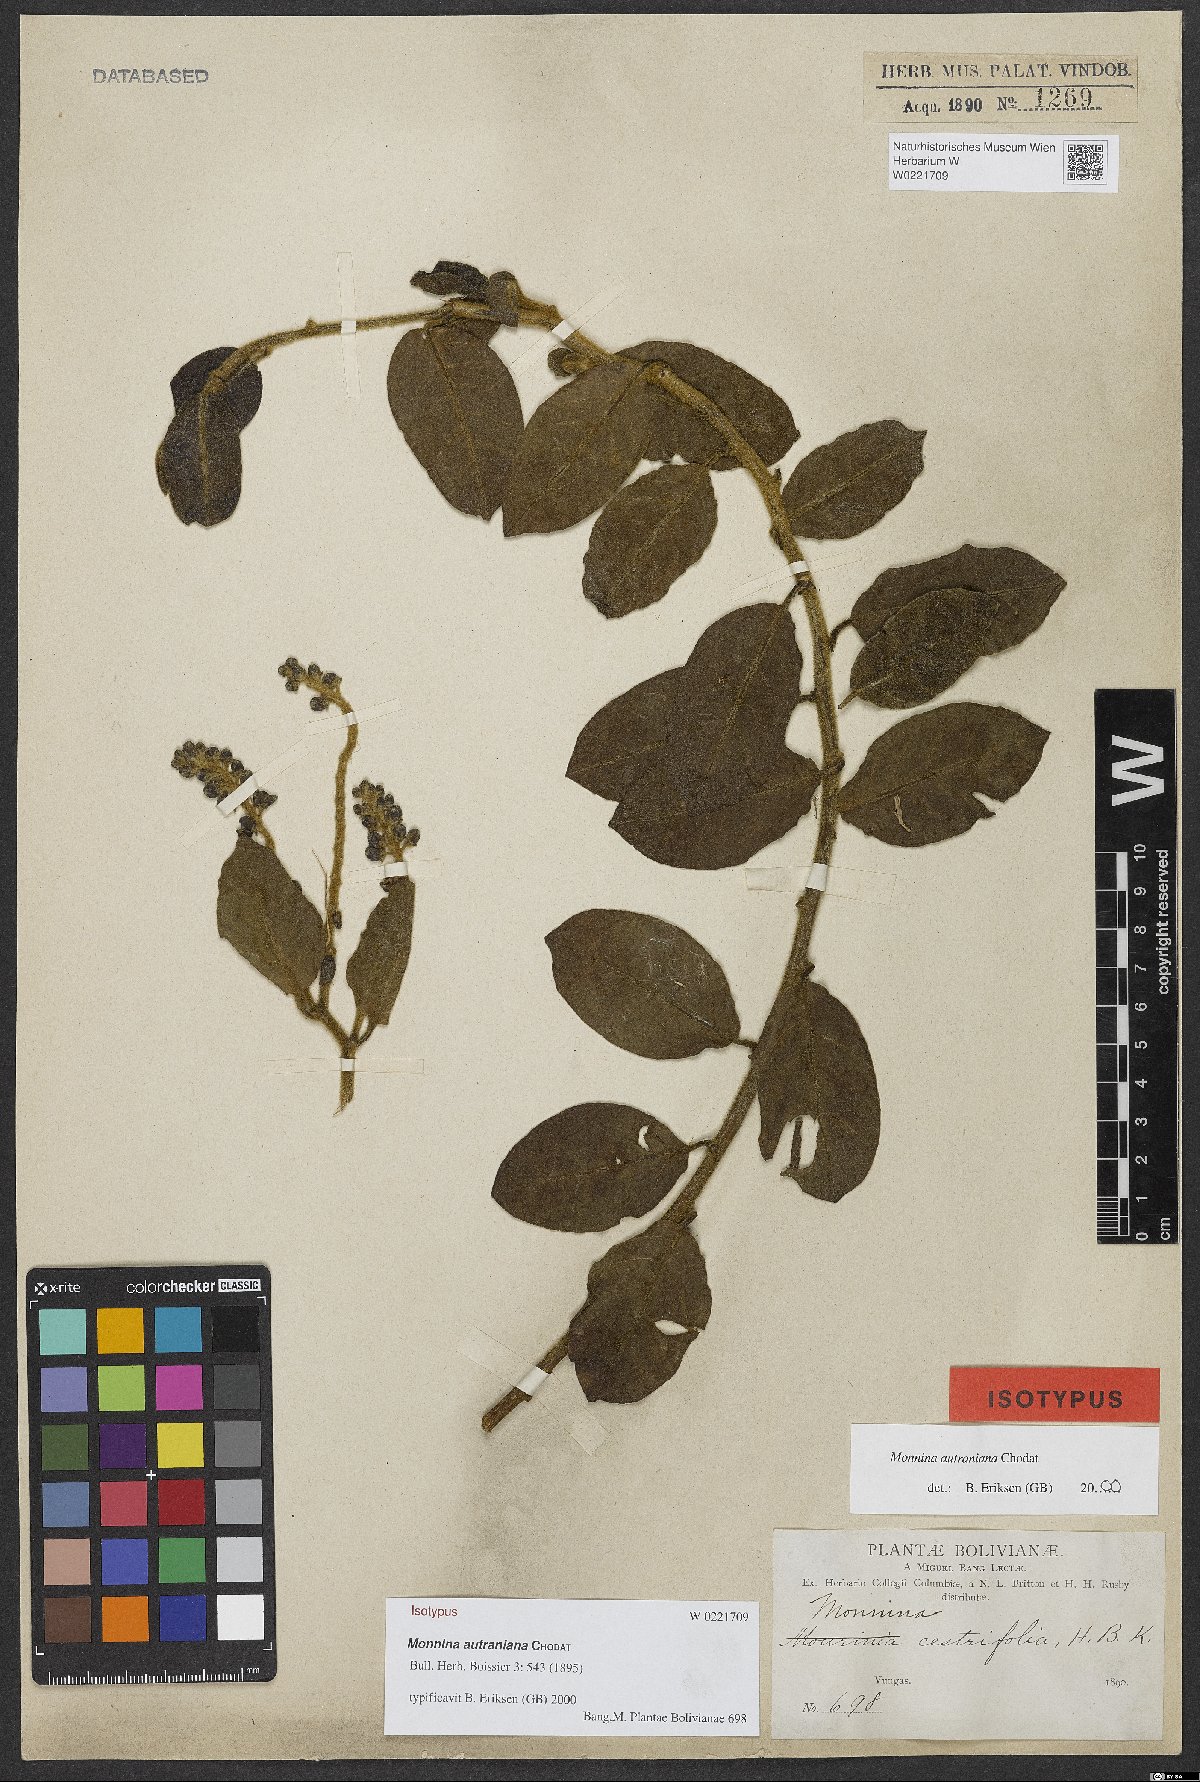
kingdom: Plantae
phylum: Tracheophyta
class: Magnoliopsida
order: Fabales
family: Polygalaceae
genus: Monnina
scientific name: Monnina autraniana
